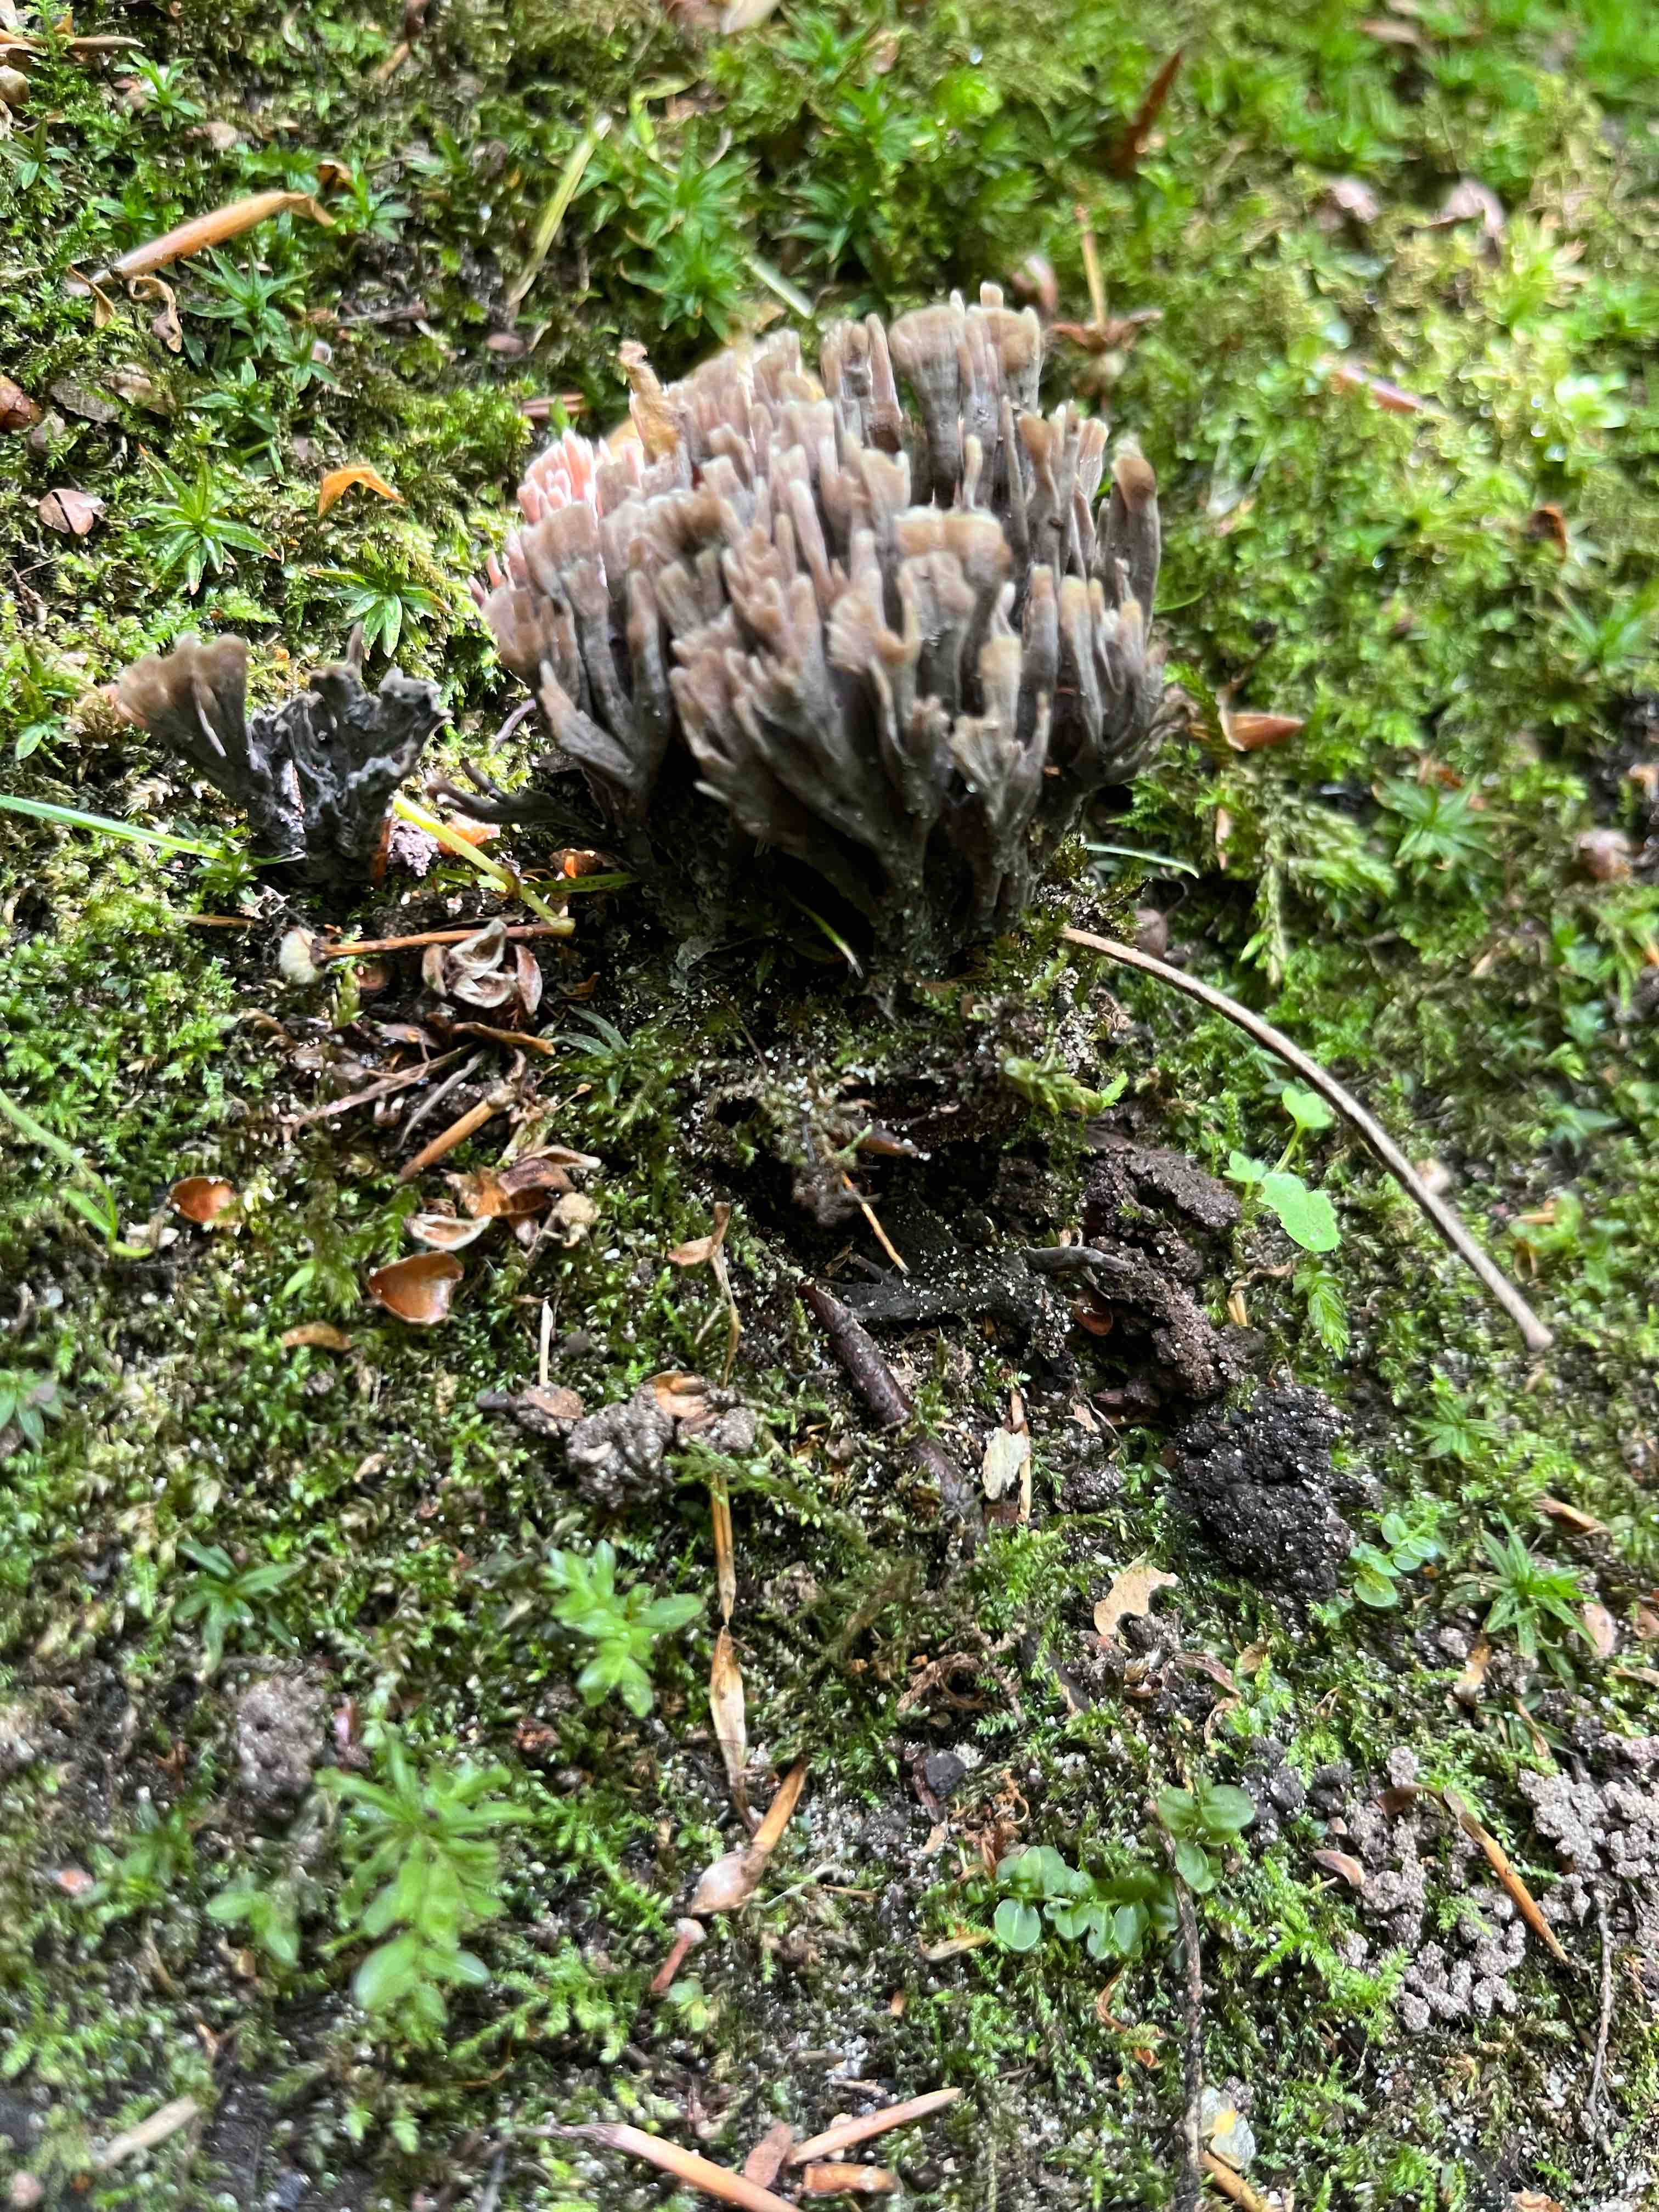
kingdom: Fungi
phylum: Basidiomycota
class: Agaricomycetes
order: Thelephorales
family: Thelephoraceae
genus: Thelephora
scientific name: Thelephora palmata
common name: grenet frynsesvamp
